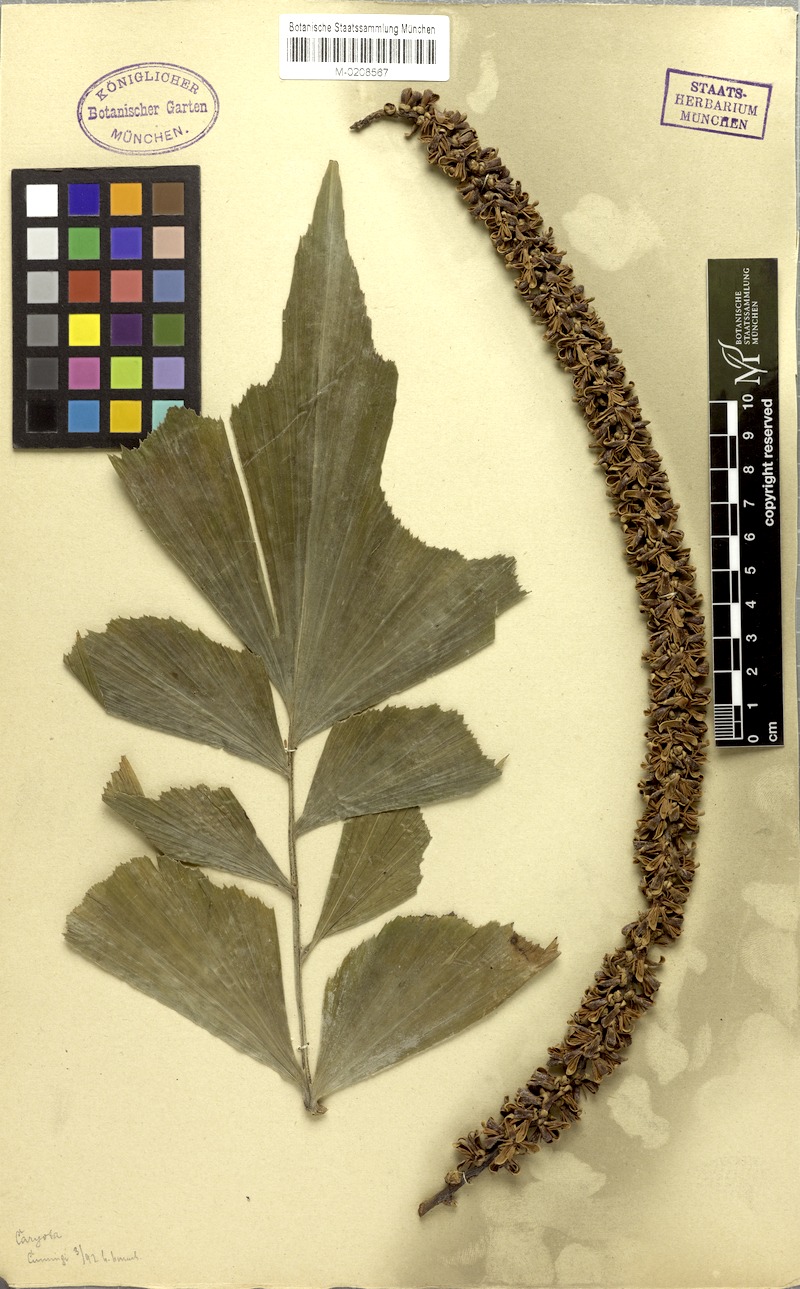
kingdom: Plantae
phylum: Tracheophyta
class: Liliopsida
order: Arecales
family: Arecaceae
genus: Caryota
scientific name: Caryota cumingii
